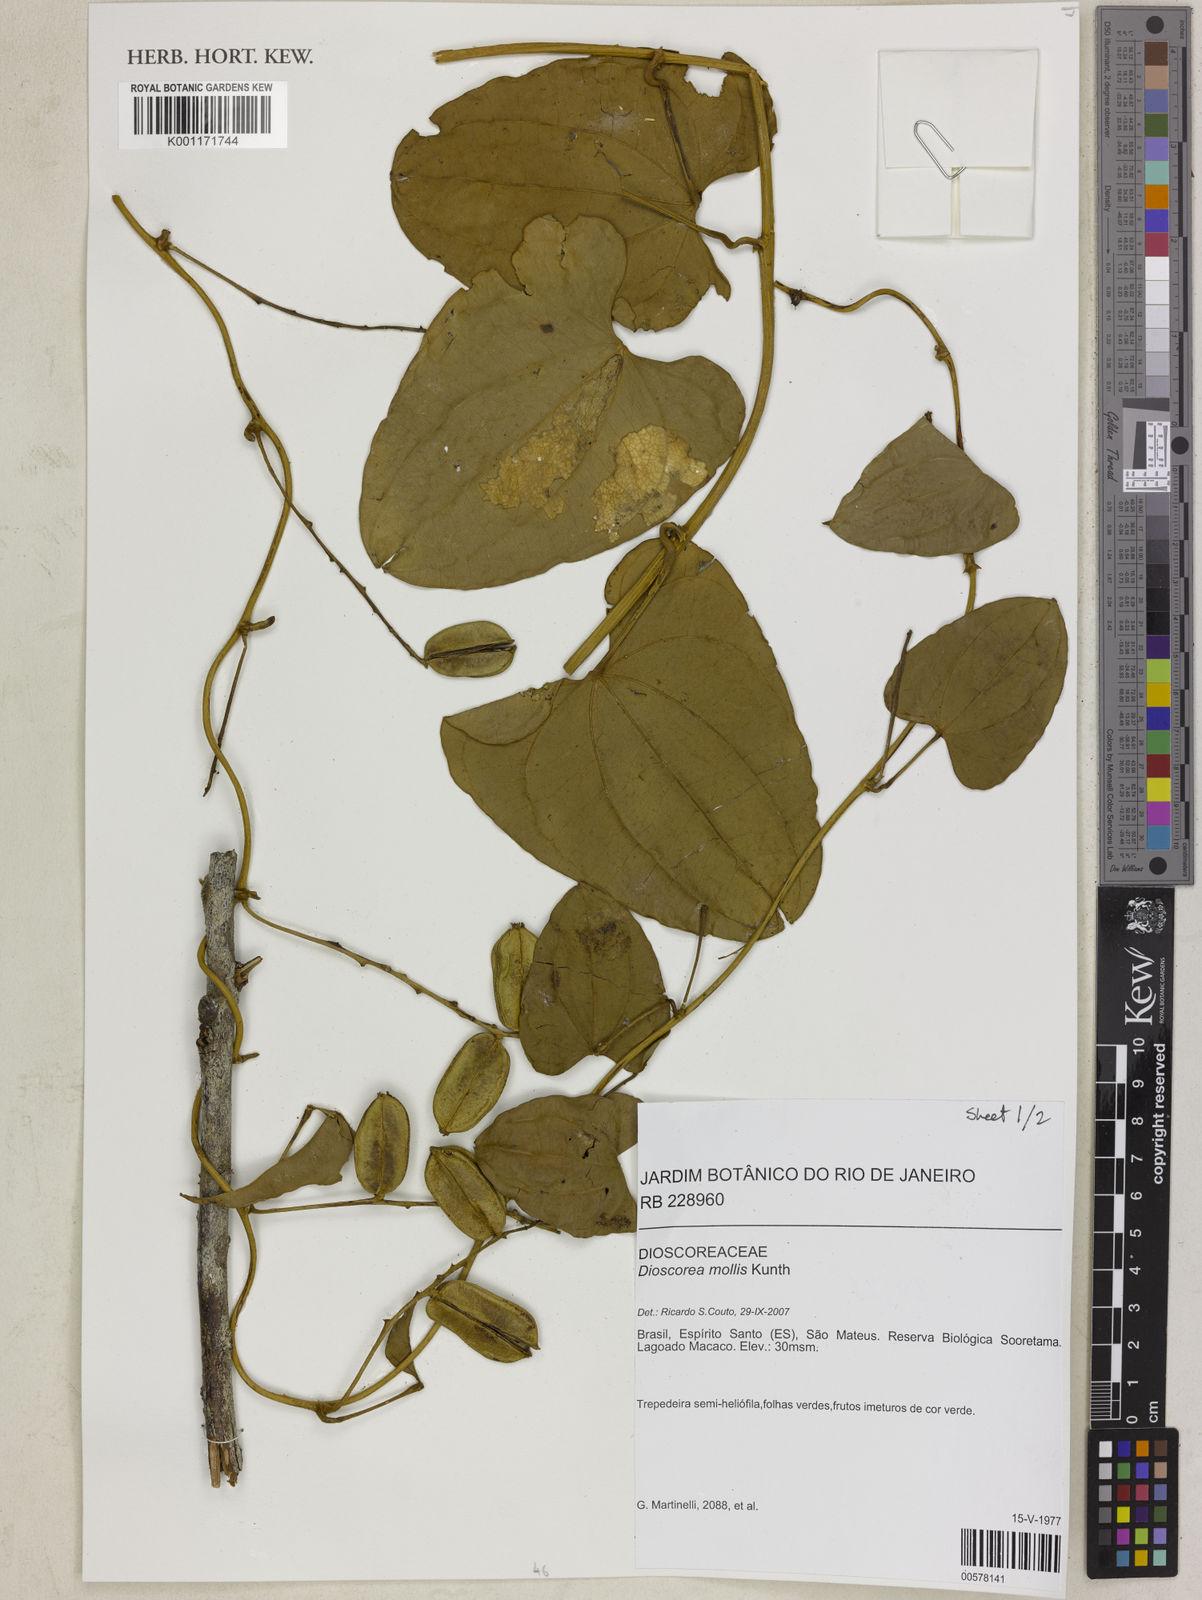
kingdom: Plantae
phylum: Tracheophyta
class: Liliopsida
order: Dioscoreales
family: Dioscoreaceae
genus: Dioscorea
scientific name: Dioscorea mollis
